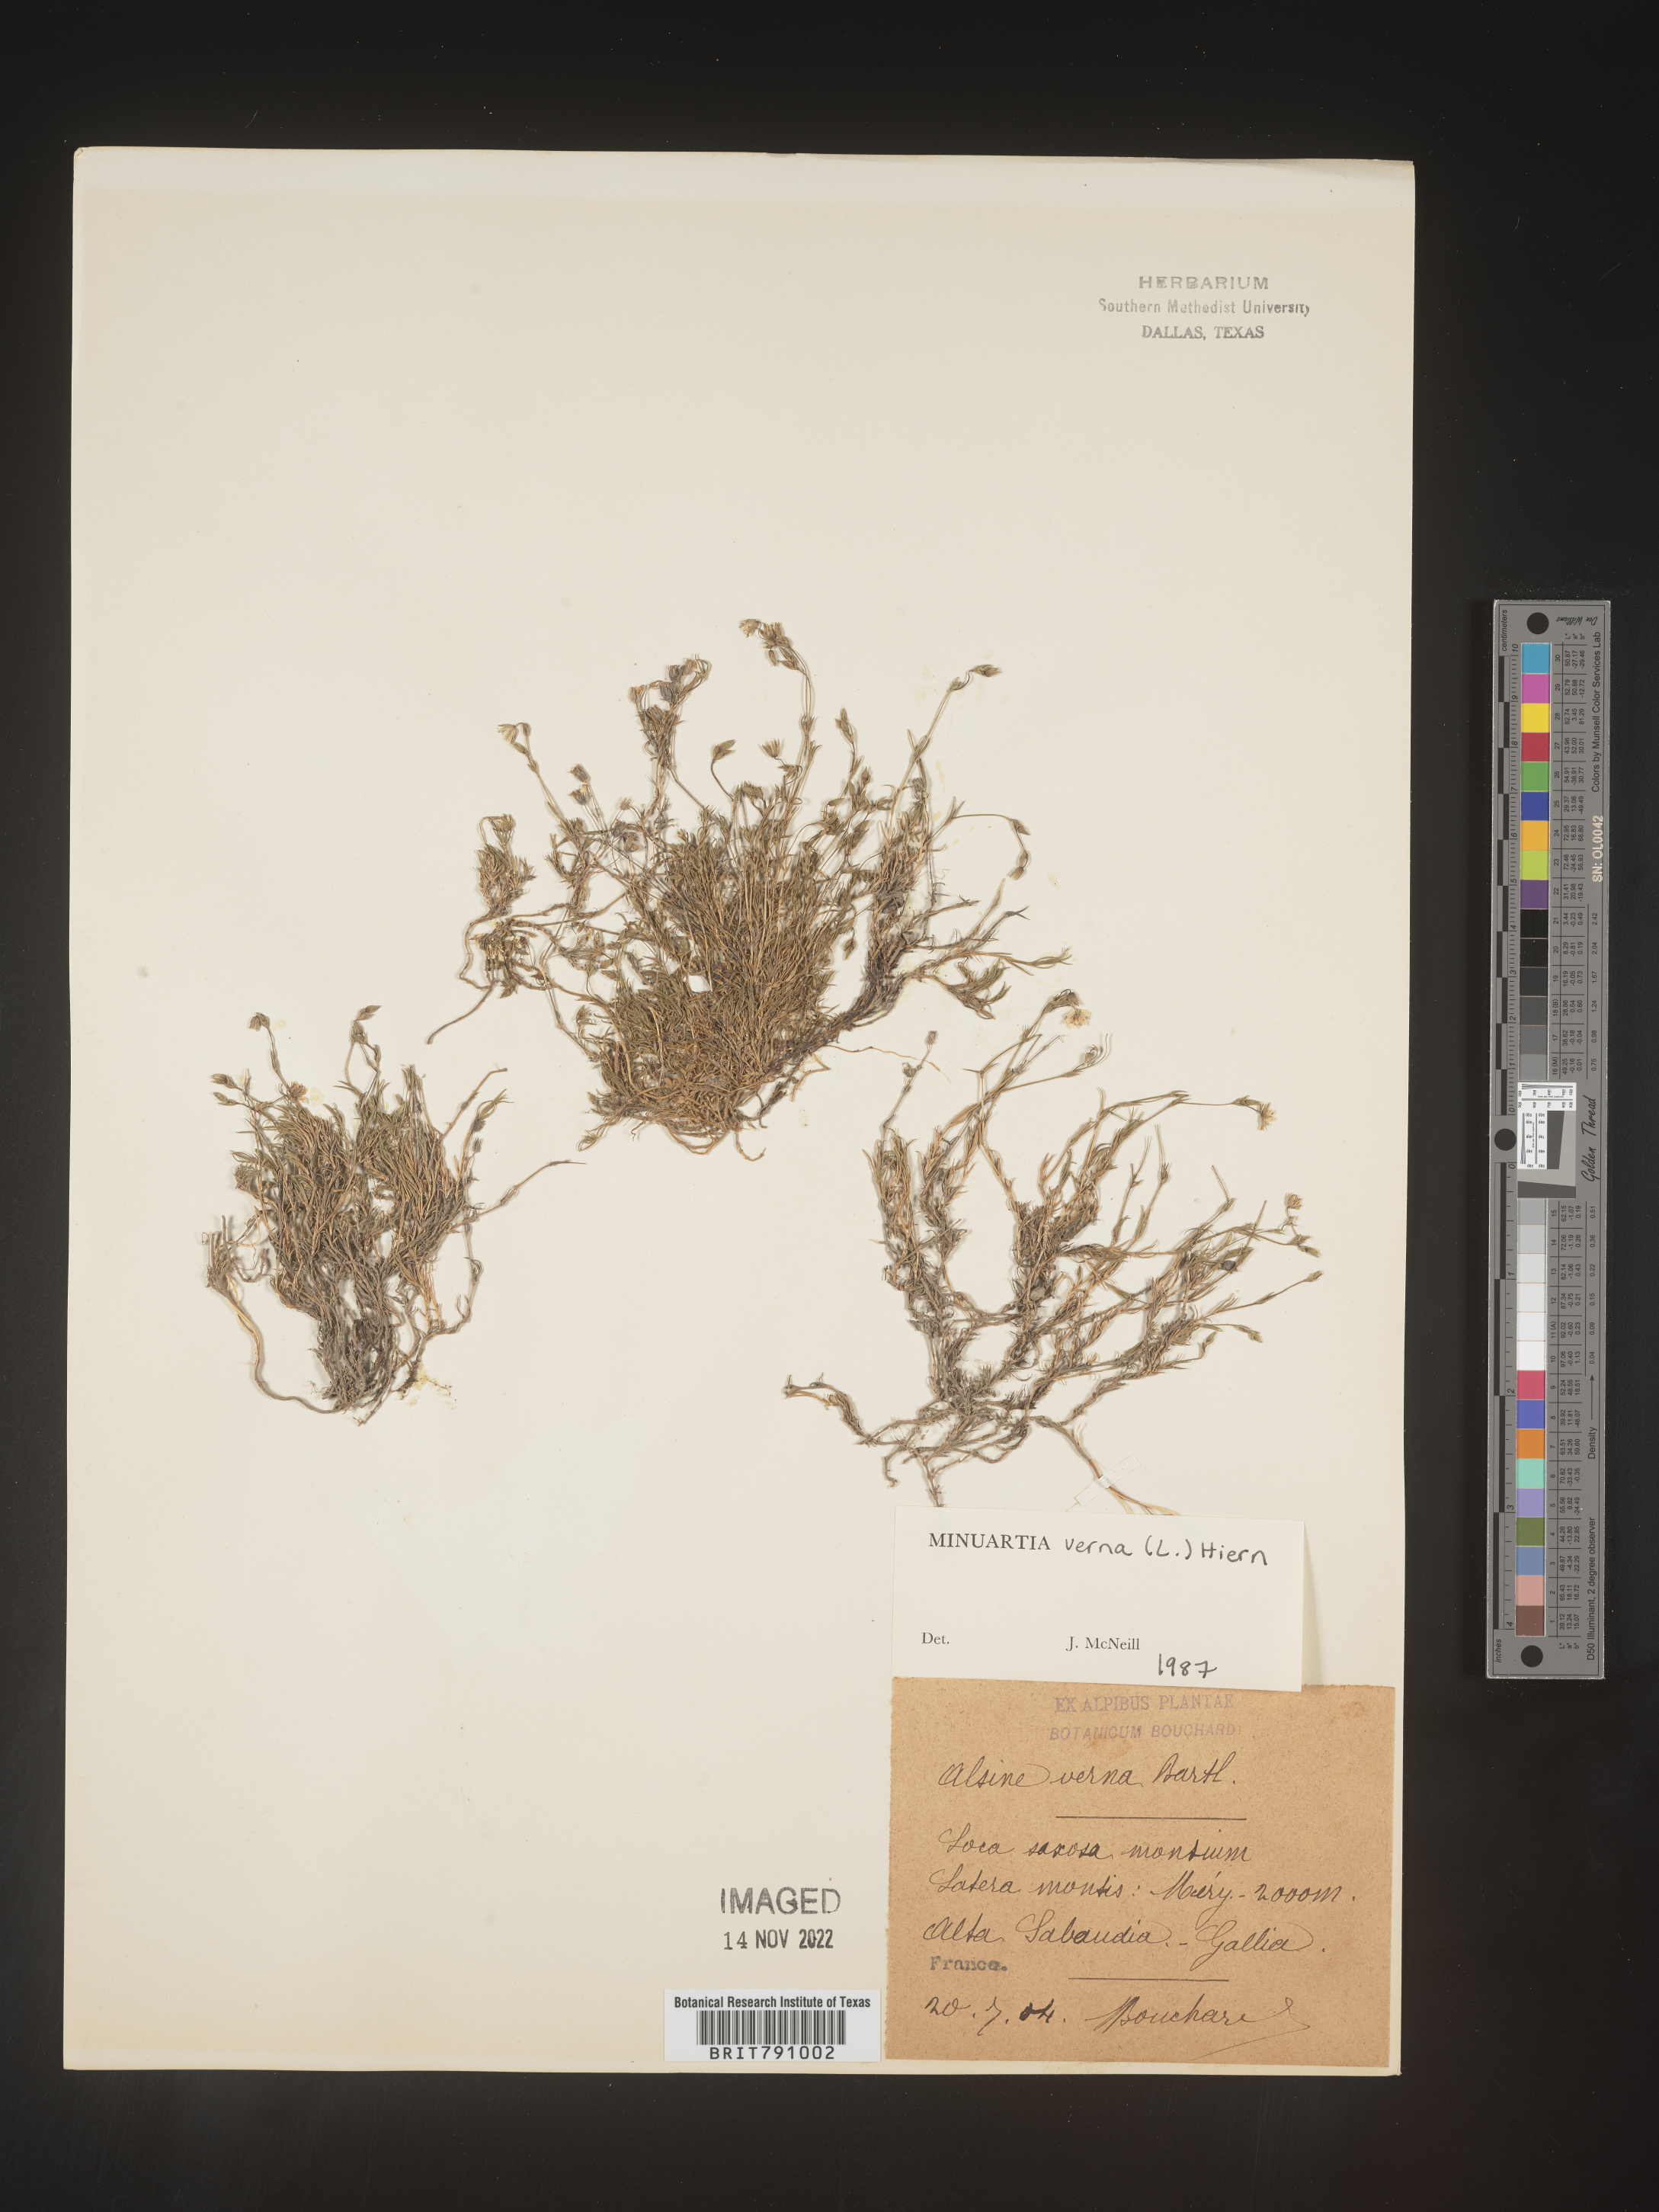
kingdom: Plantae
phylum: Tracheophyta
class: Magnoliopsida
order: Caryophyllales
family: Caryophyllaceae
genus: Minuartia
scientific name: Minuartia
